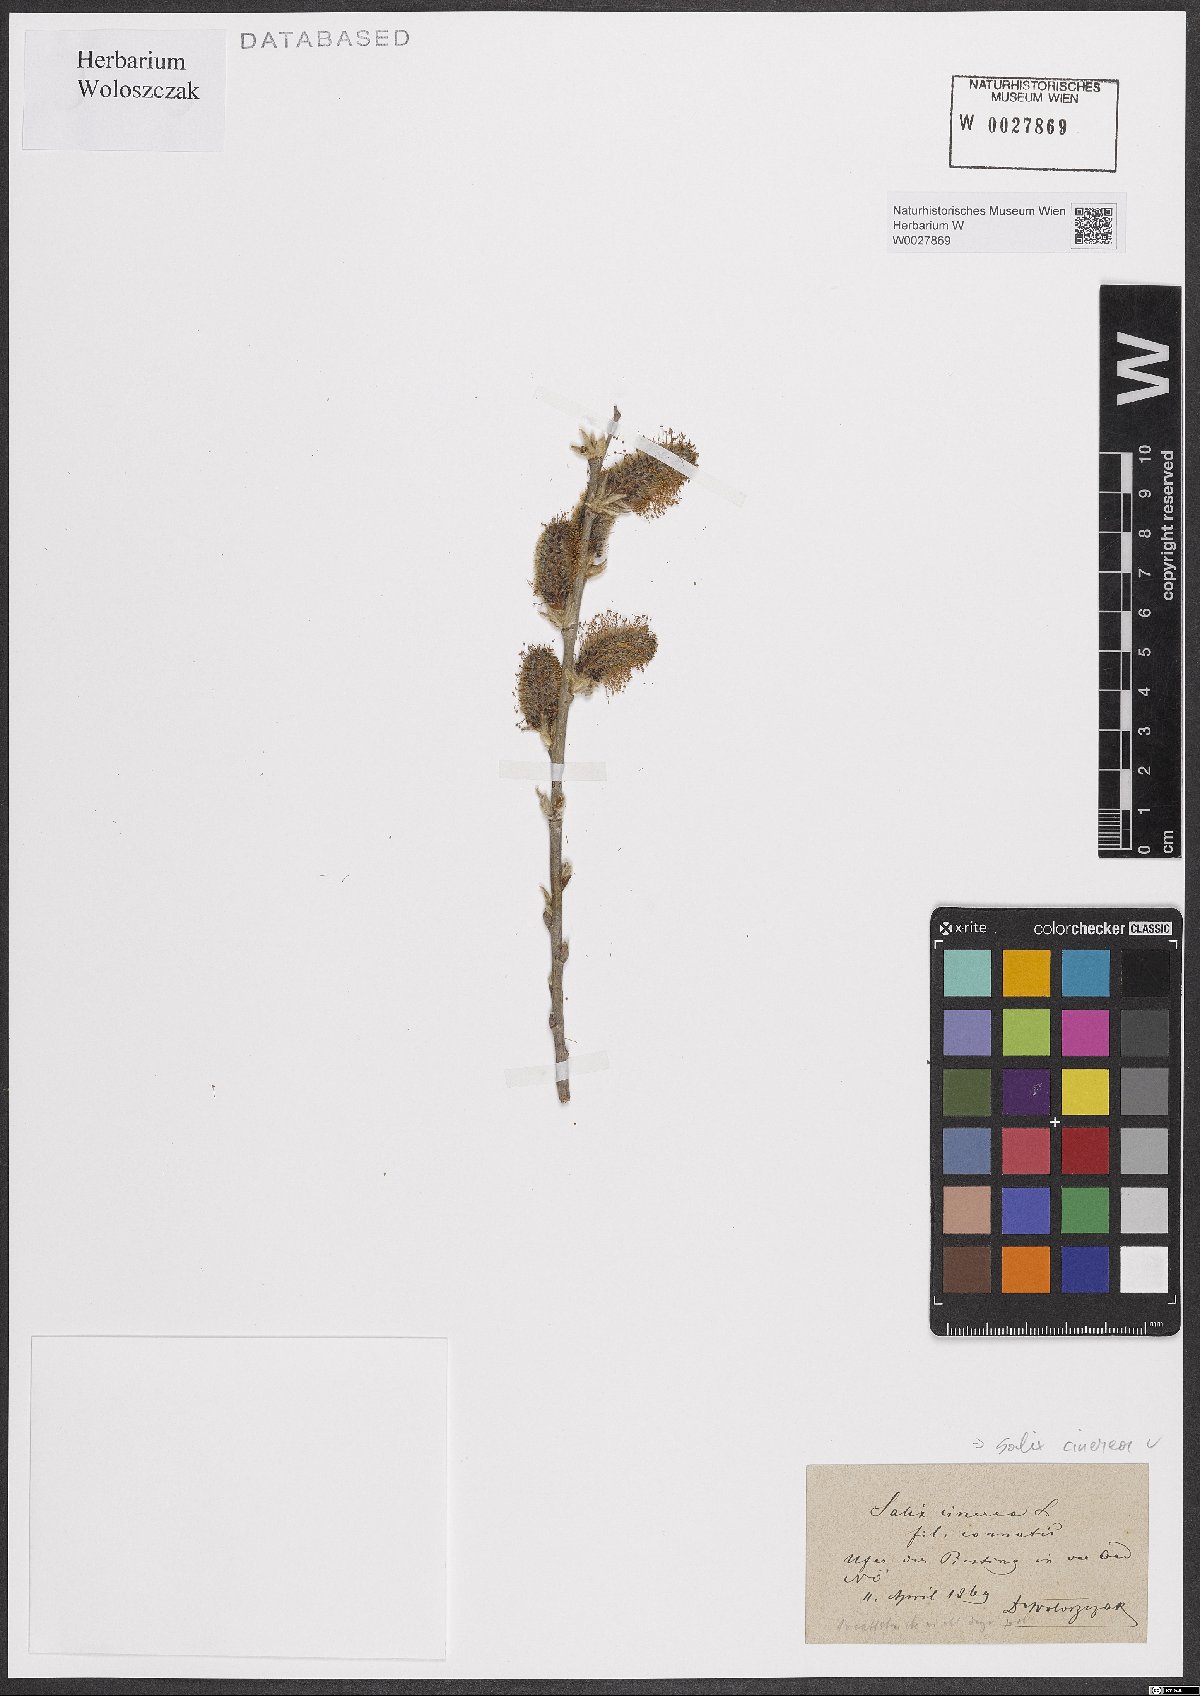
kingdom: Plantae
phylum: Tracheophyta
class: Magnoliopsida
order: Malpighiales
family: Salicaceae
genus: Salix
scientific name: Salix cinerea
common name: Common sallow
